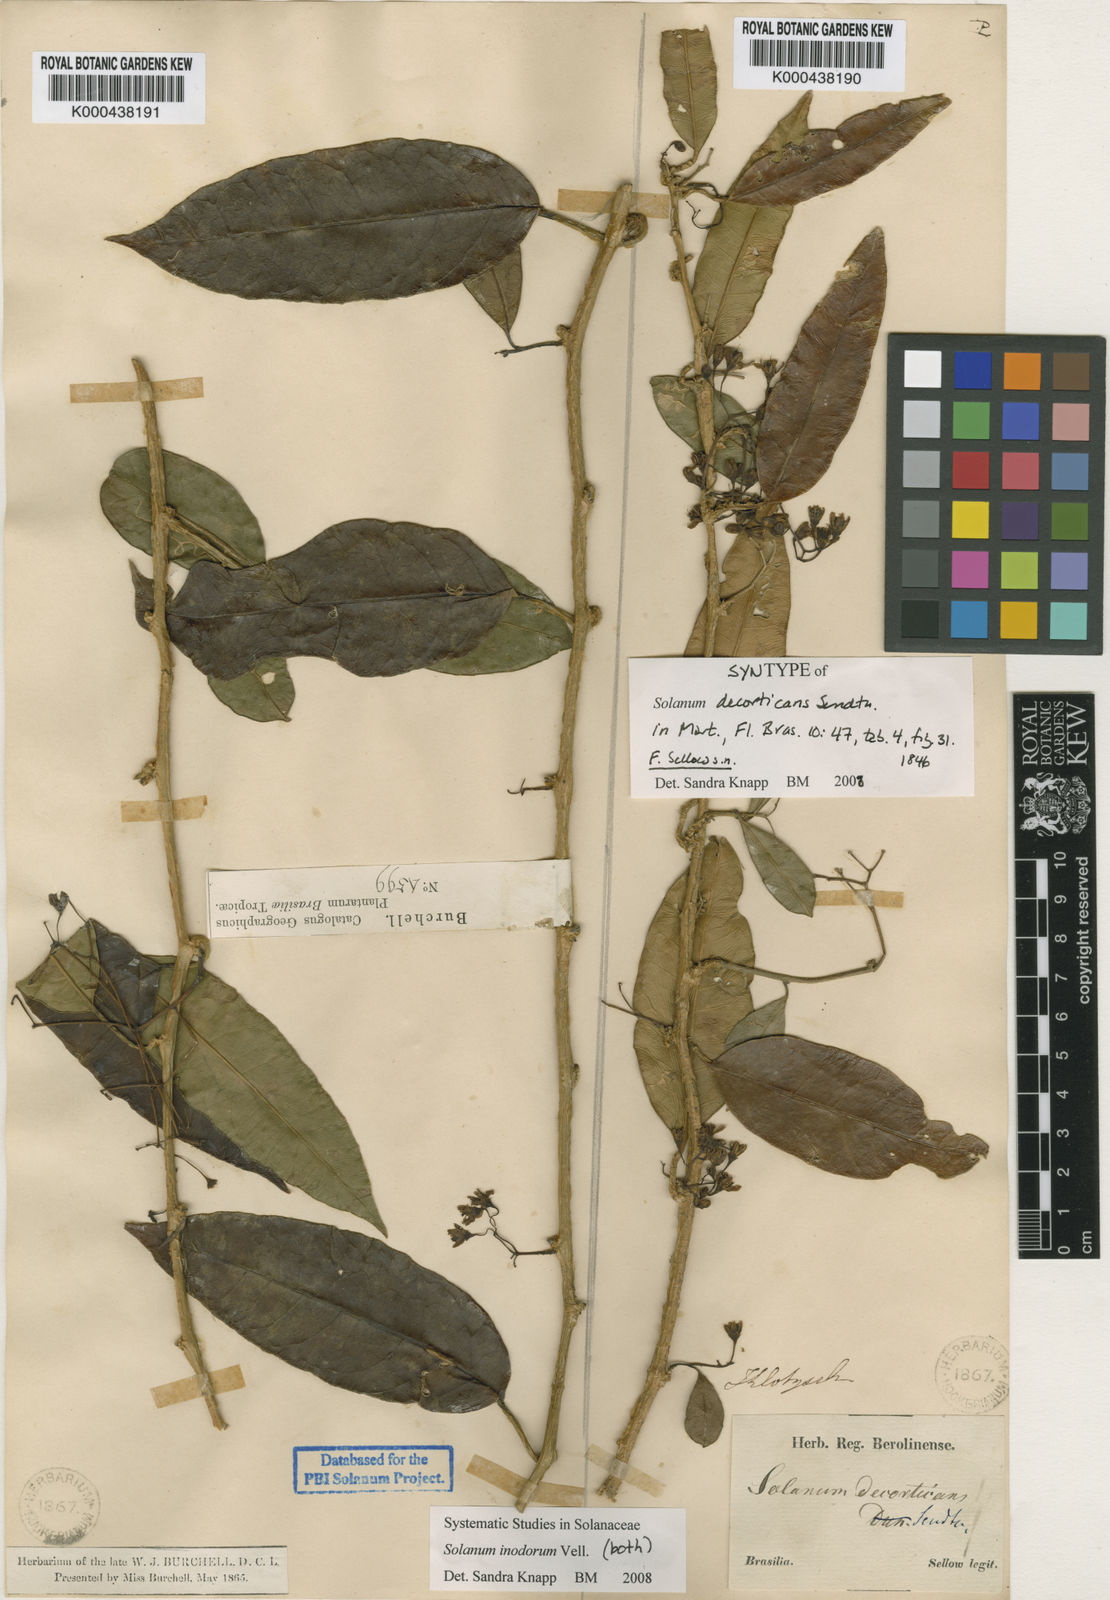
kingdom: Plantae
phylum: Tracheophyta
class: Magnoliopsida
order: Solanales
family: Solanaceae
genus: Solanum
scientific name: Solanum inodorum
